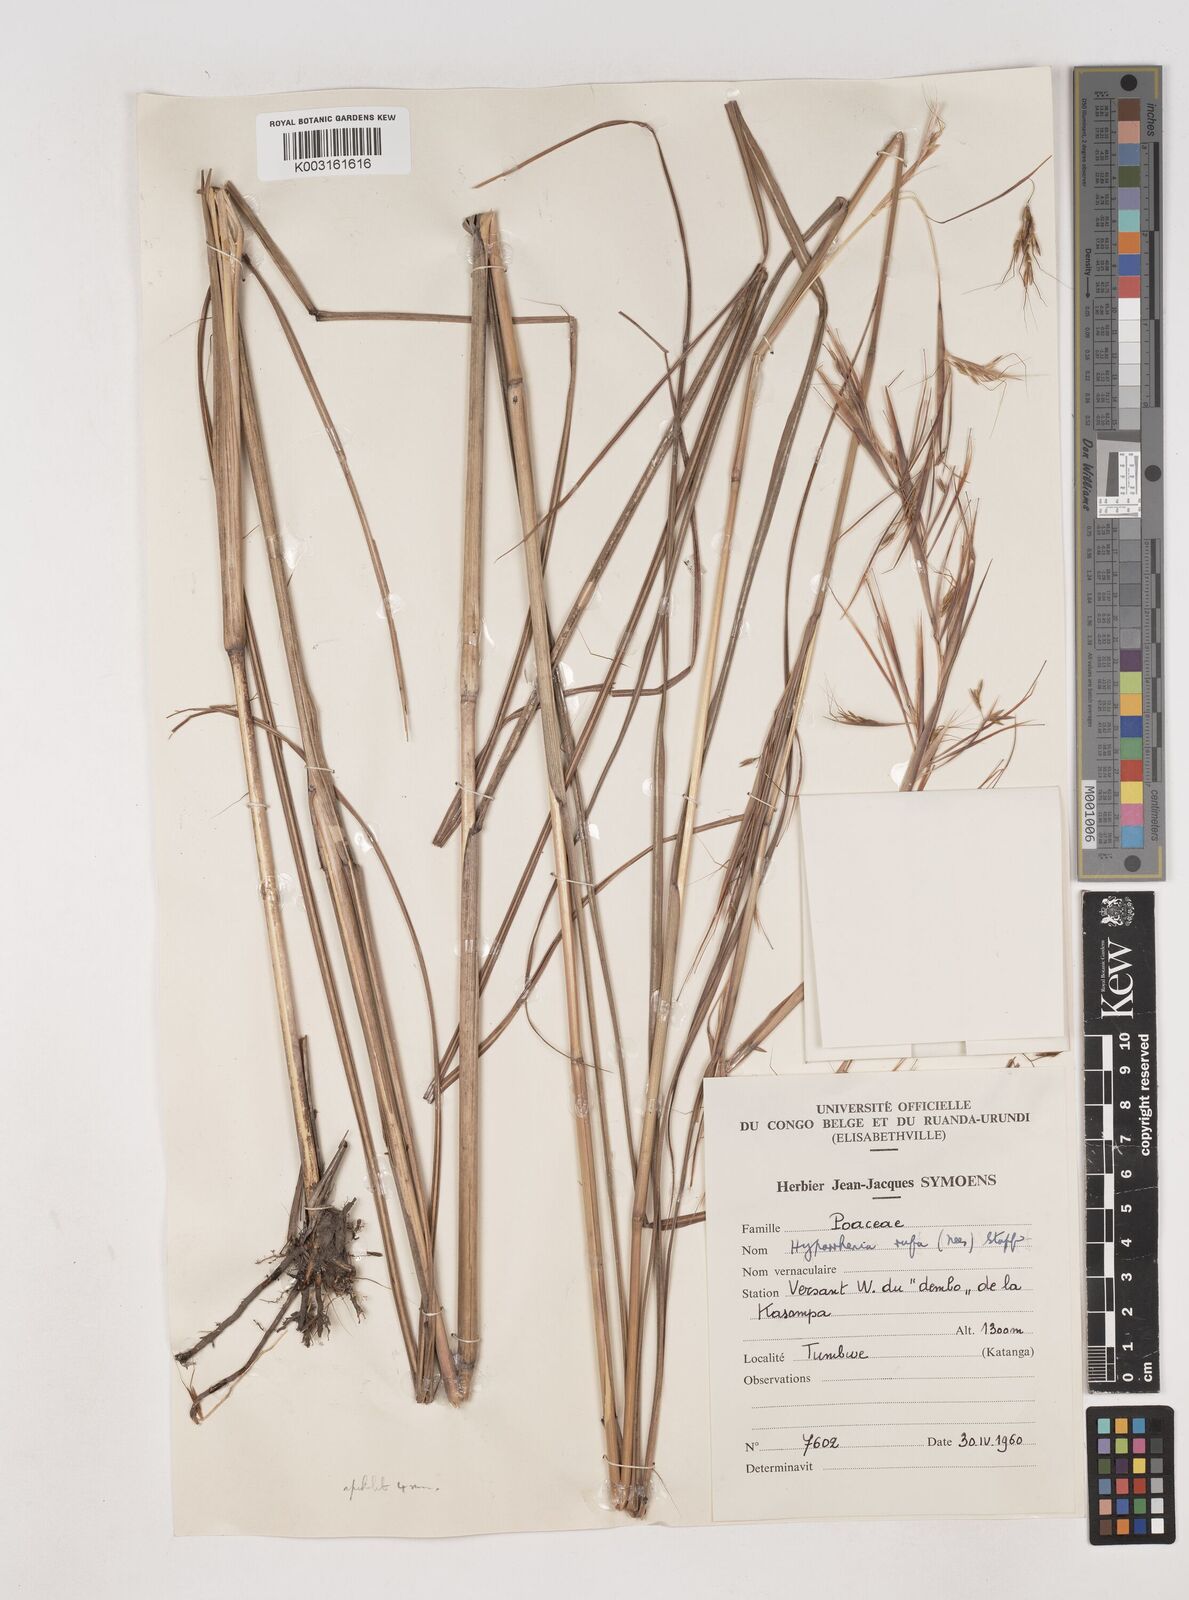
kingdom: Plantae
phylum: Tracheophyta
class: Liliopsida
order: Poales
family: Poaceae
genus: Hyparrhenia
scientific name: Hyparrhenia rufa
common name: Jaraguagrass
